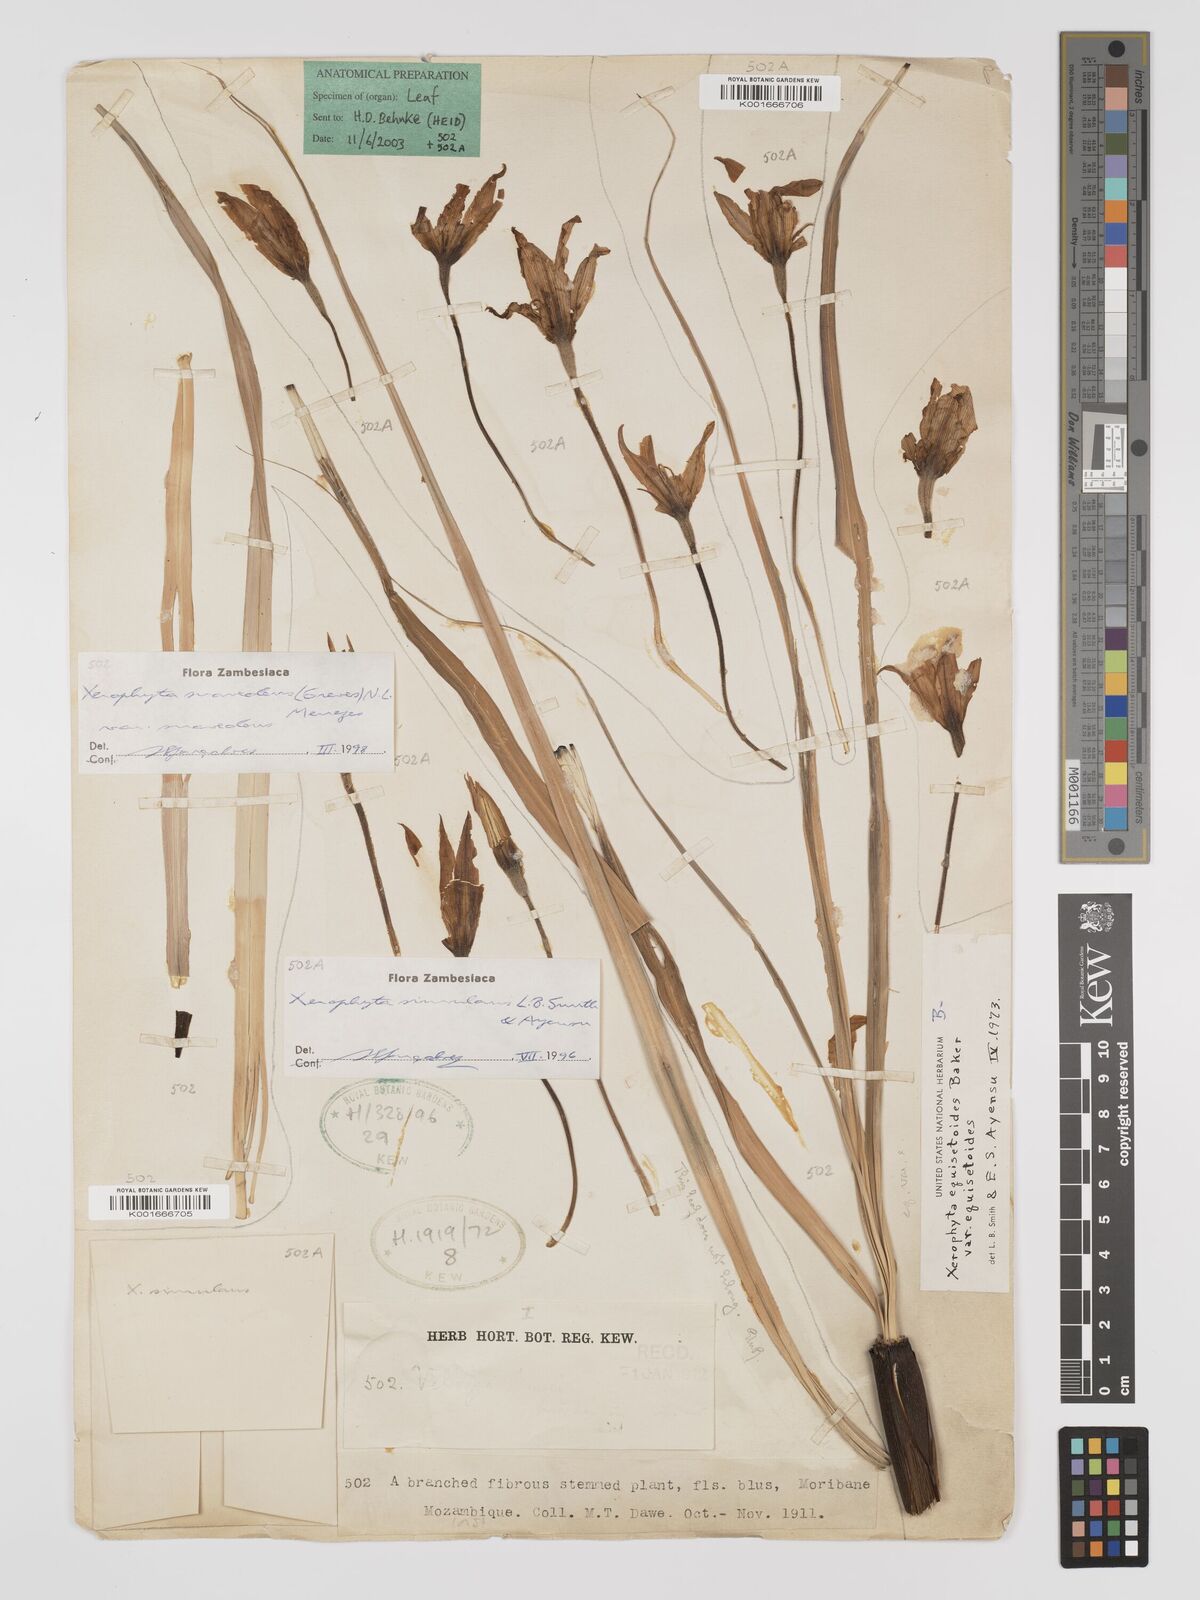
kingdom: Plantae
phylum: Tracheophyta
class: Liliopsida
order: Pandanales
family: Velloziaceae
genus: Xerophyta
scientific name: Xerophyta simulans
